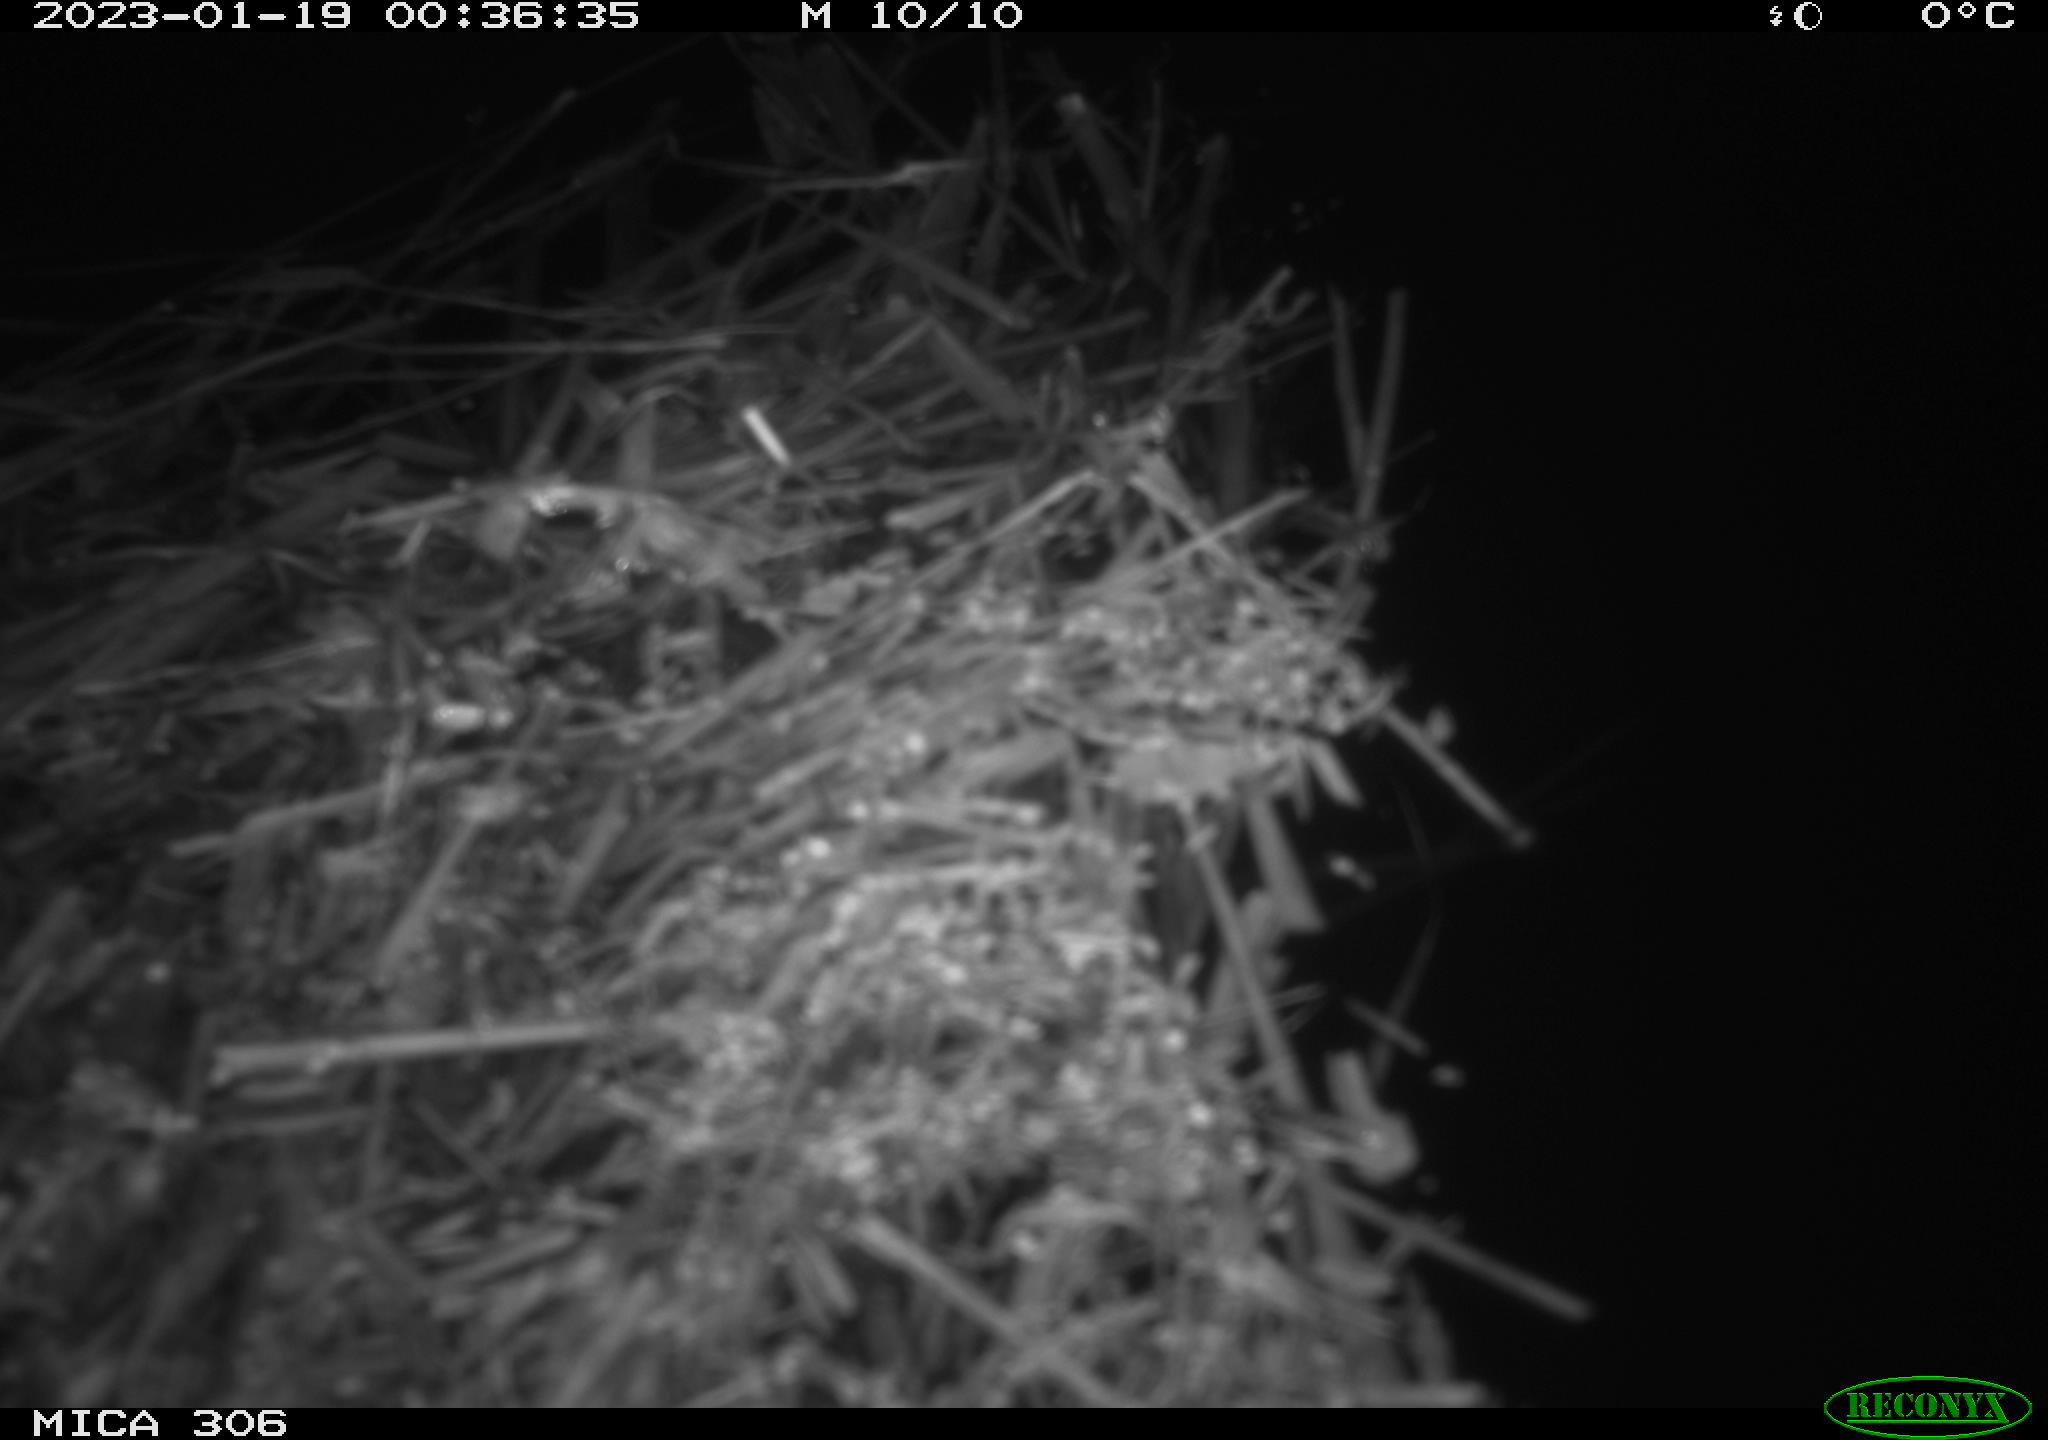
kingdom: Animalia
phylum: Chordata
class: Mammalia
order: Rodentia
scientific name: Rodentia
